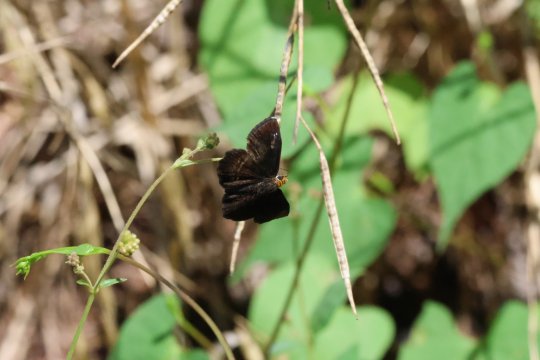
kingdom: Animalia
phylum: Arthropoda
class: Insecta
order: Lepidoptera
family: Hesperiidae
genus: Staphylus
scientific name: Staphylus ceos
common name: Golden-headed Scallopwing
